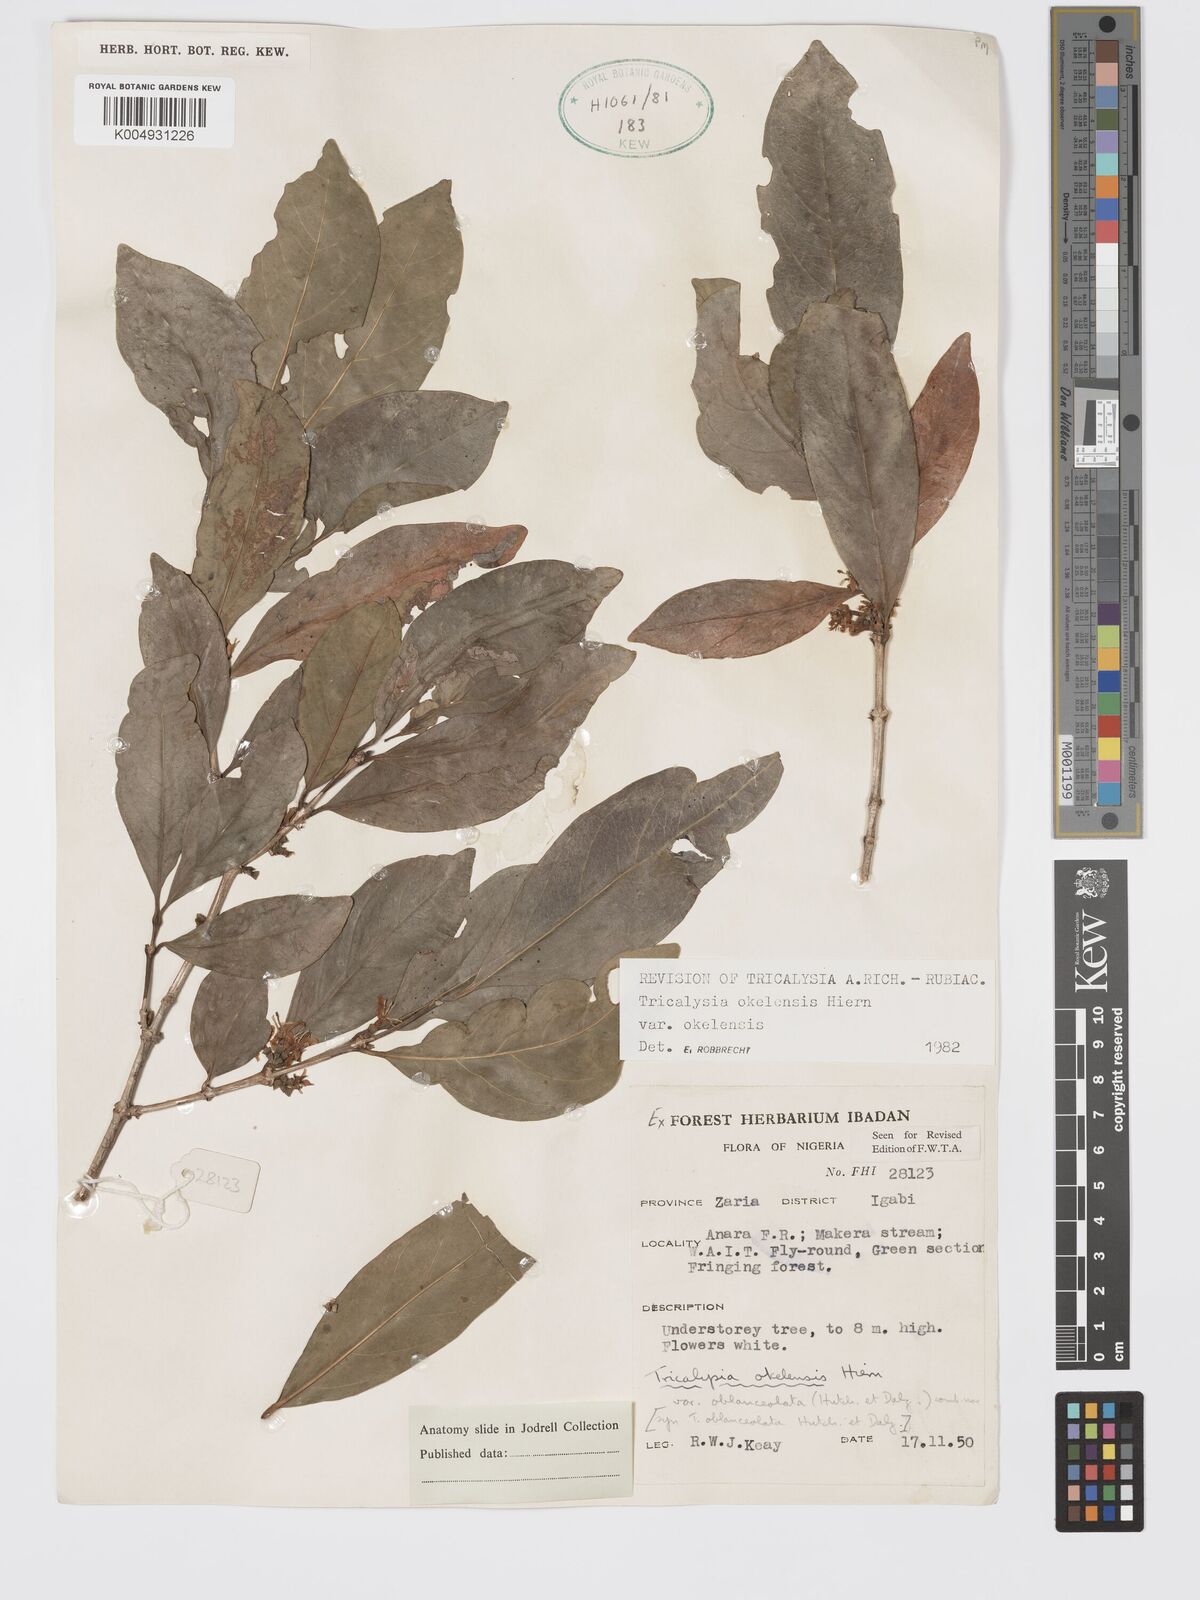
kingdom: Plantae
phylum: Tracheophyta
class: Magnoliopsida
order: Gentianales
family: Rubiaceae
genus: Tricalysia
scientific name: Tricalysia okelensis
